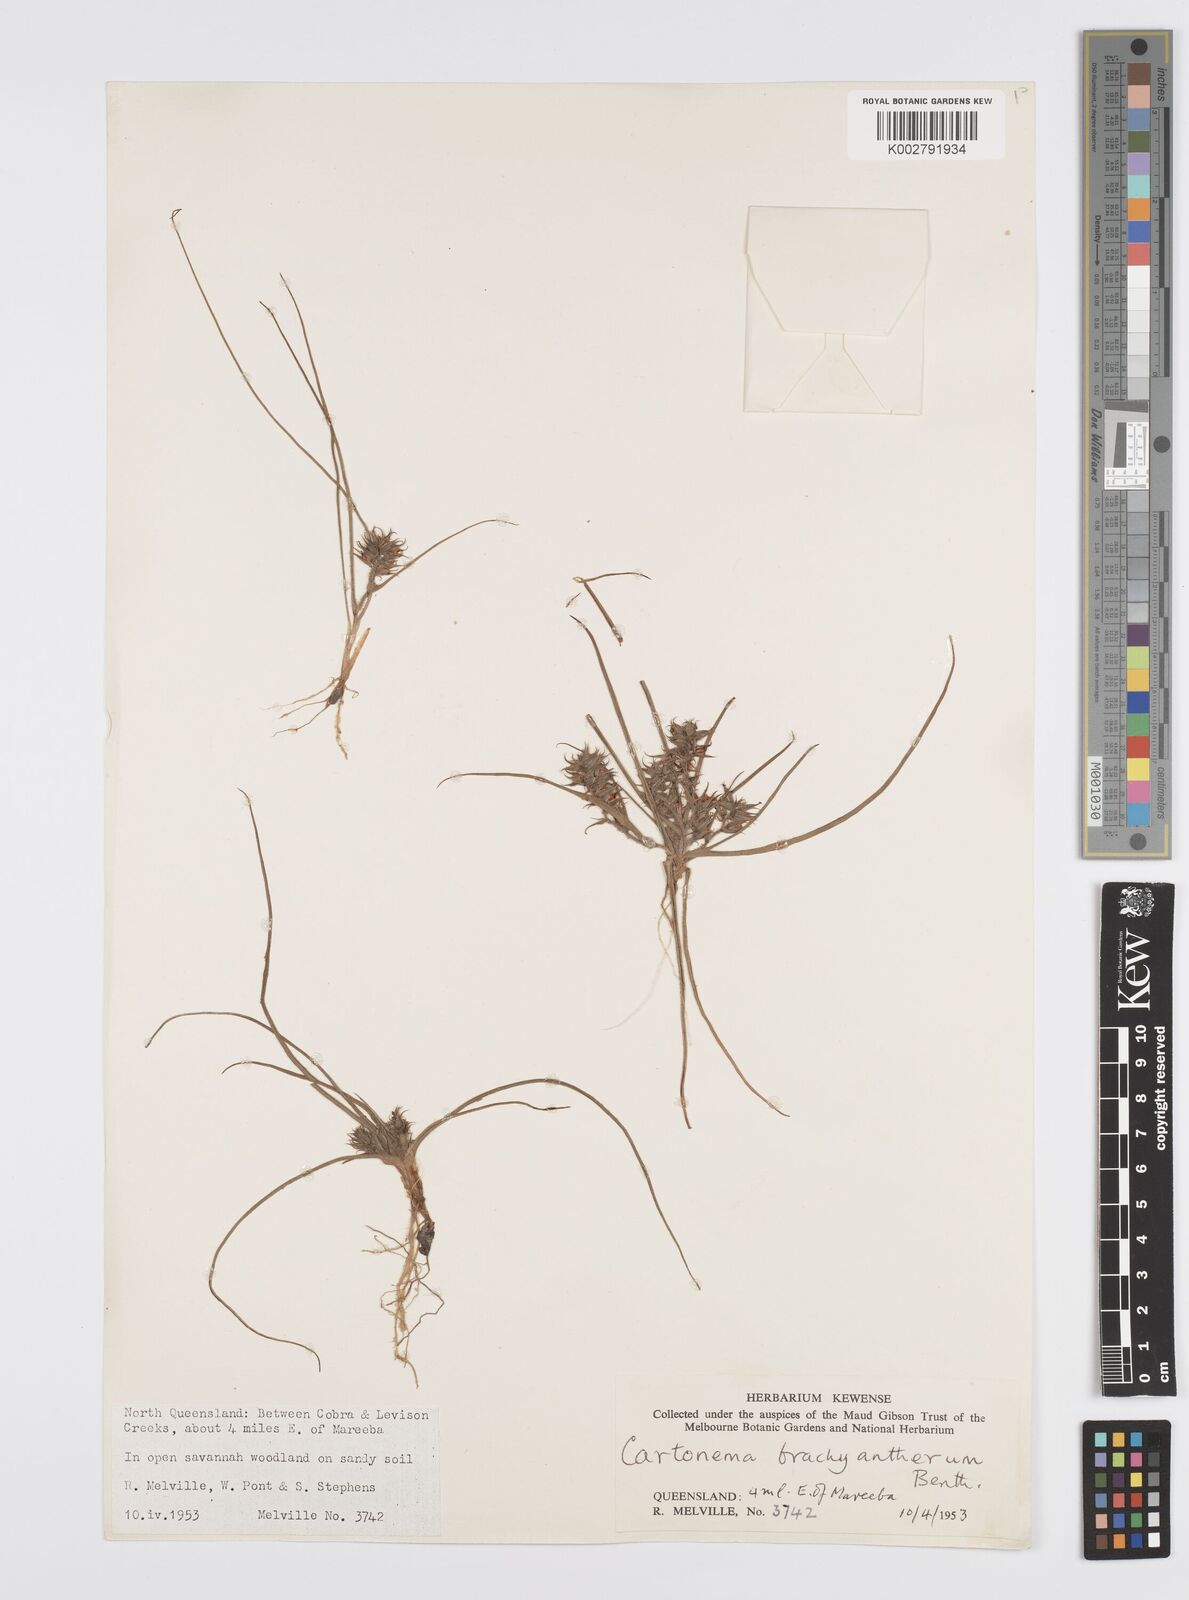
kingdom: Plantae
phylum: Tracheophyta
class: Liliopsida
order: Commelinales
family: Commelinaceae
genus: Cartonema
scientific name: Cartonema brachyantherum
